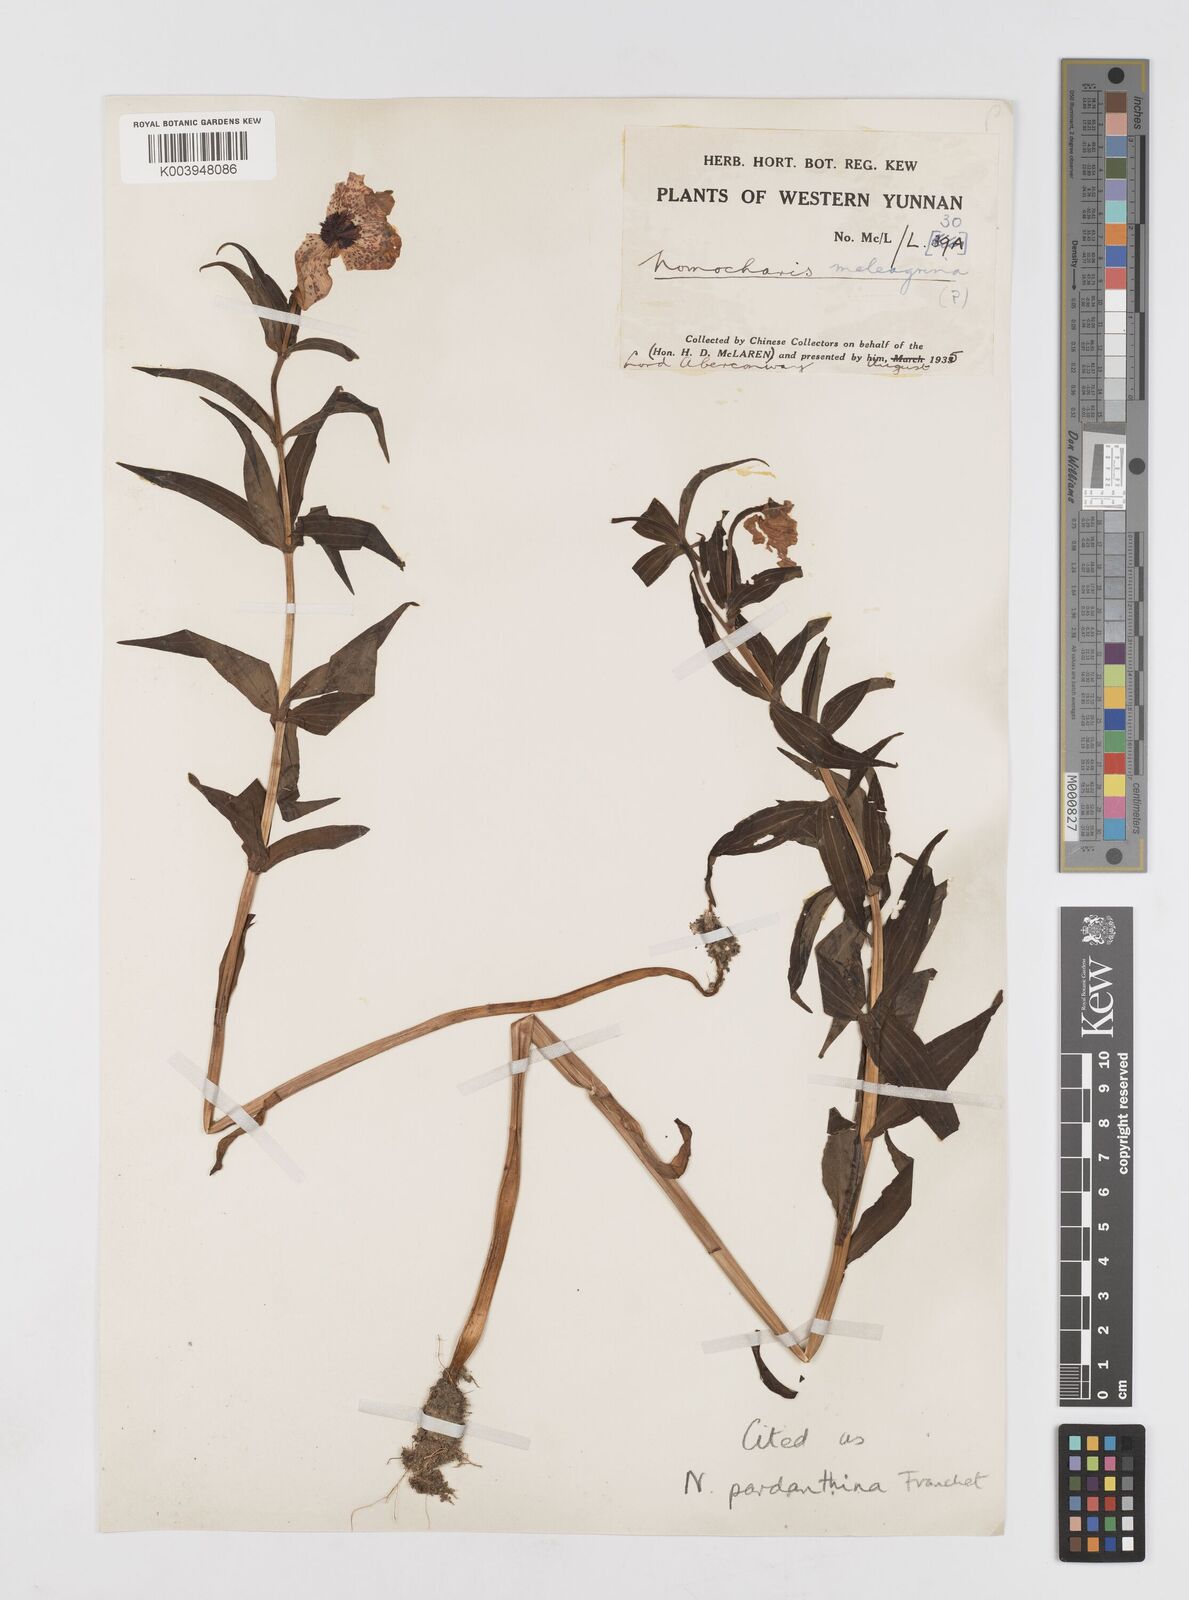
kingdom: Plantae
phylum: Tracheophyta
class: Liliopsida
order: Liliales
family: Liliaceae
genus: Lilium
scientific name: Lilium pardanthinum
